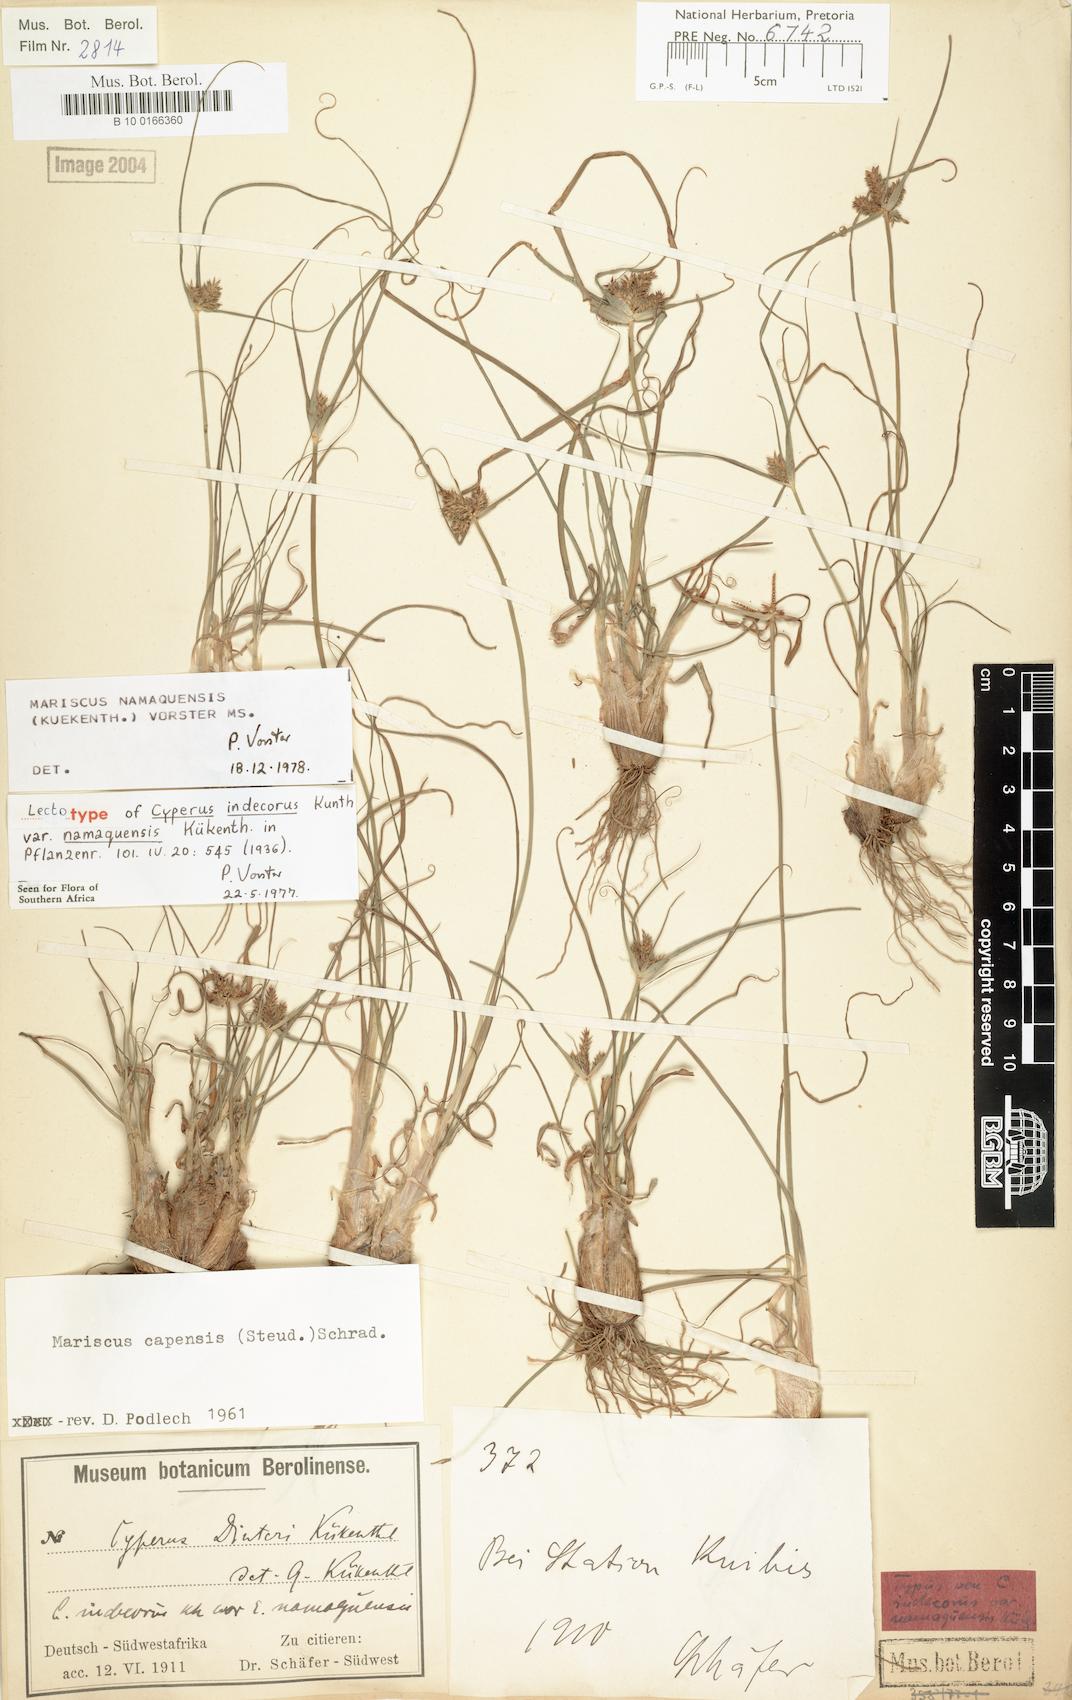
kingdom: Plantae
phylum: Tracheophyta
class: Liliopsida
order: Poales
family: Cyperaceae
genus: Mariscus
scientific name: Mariscus
